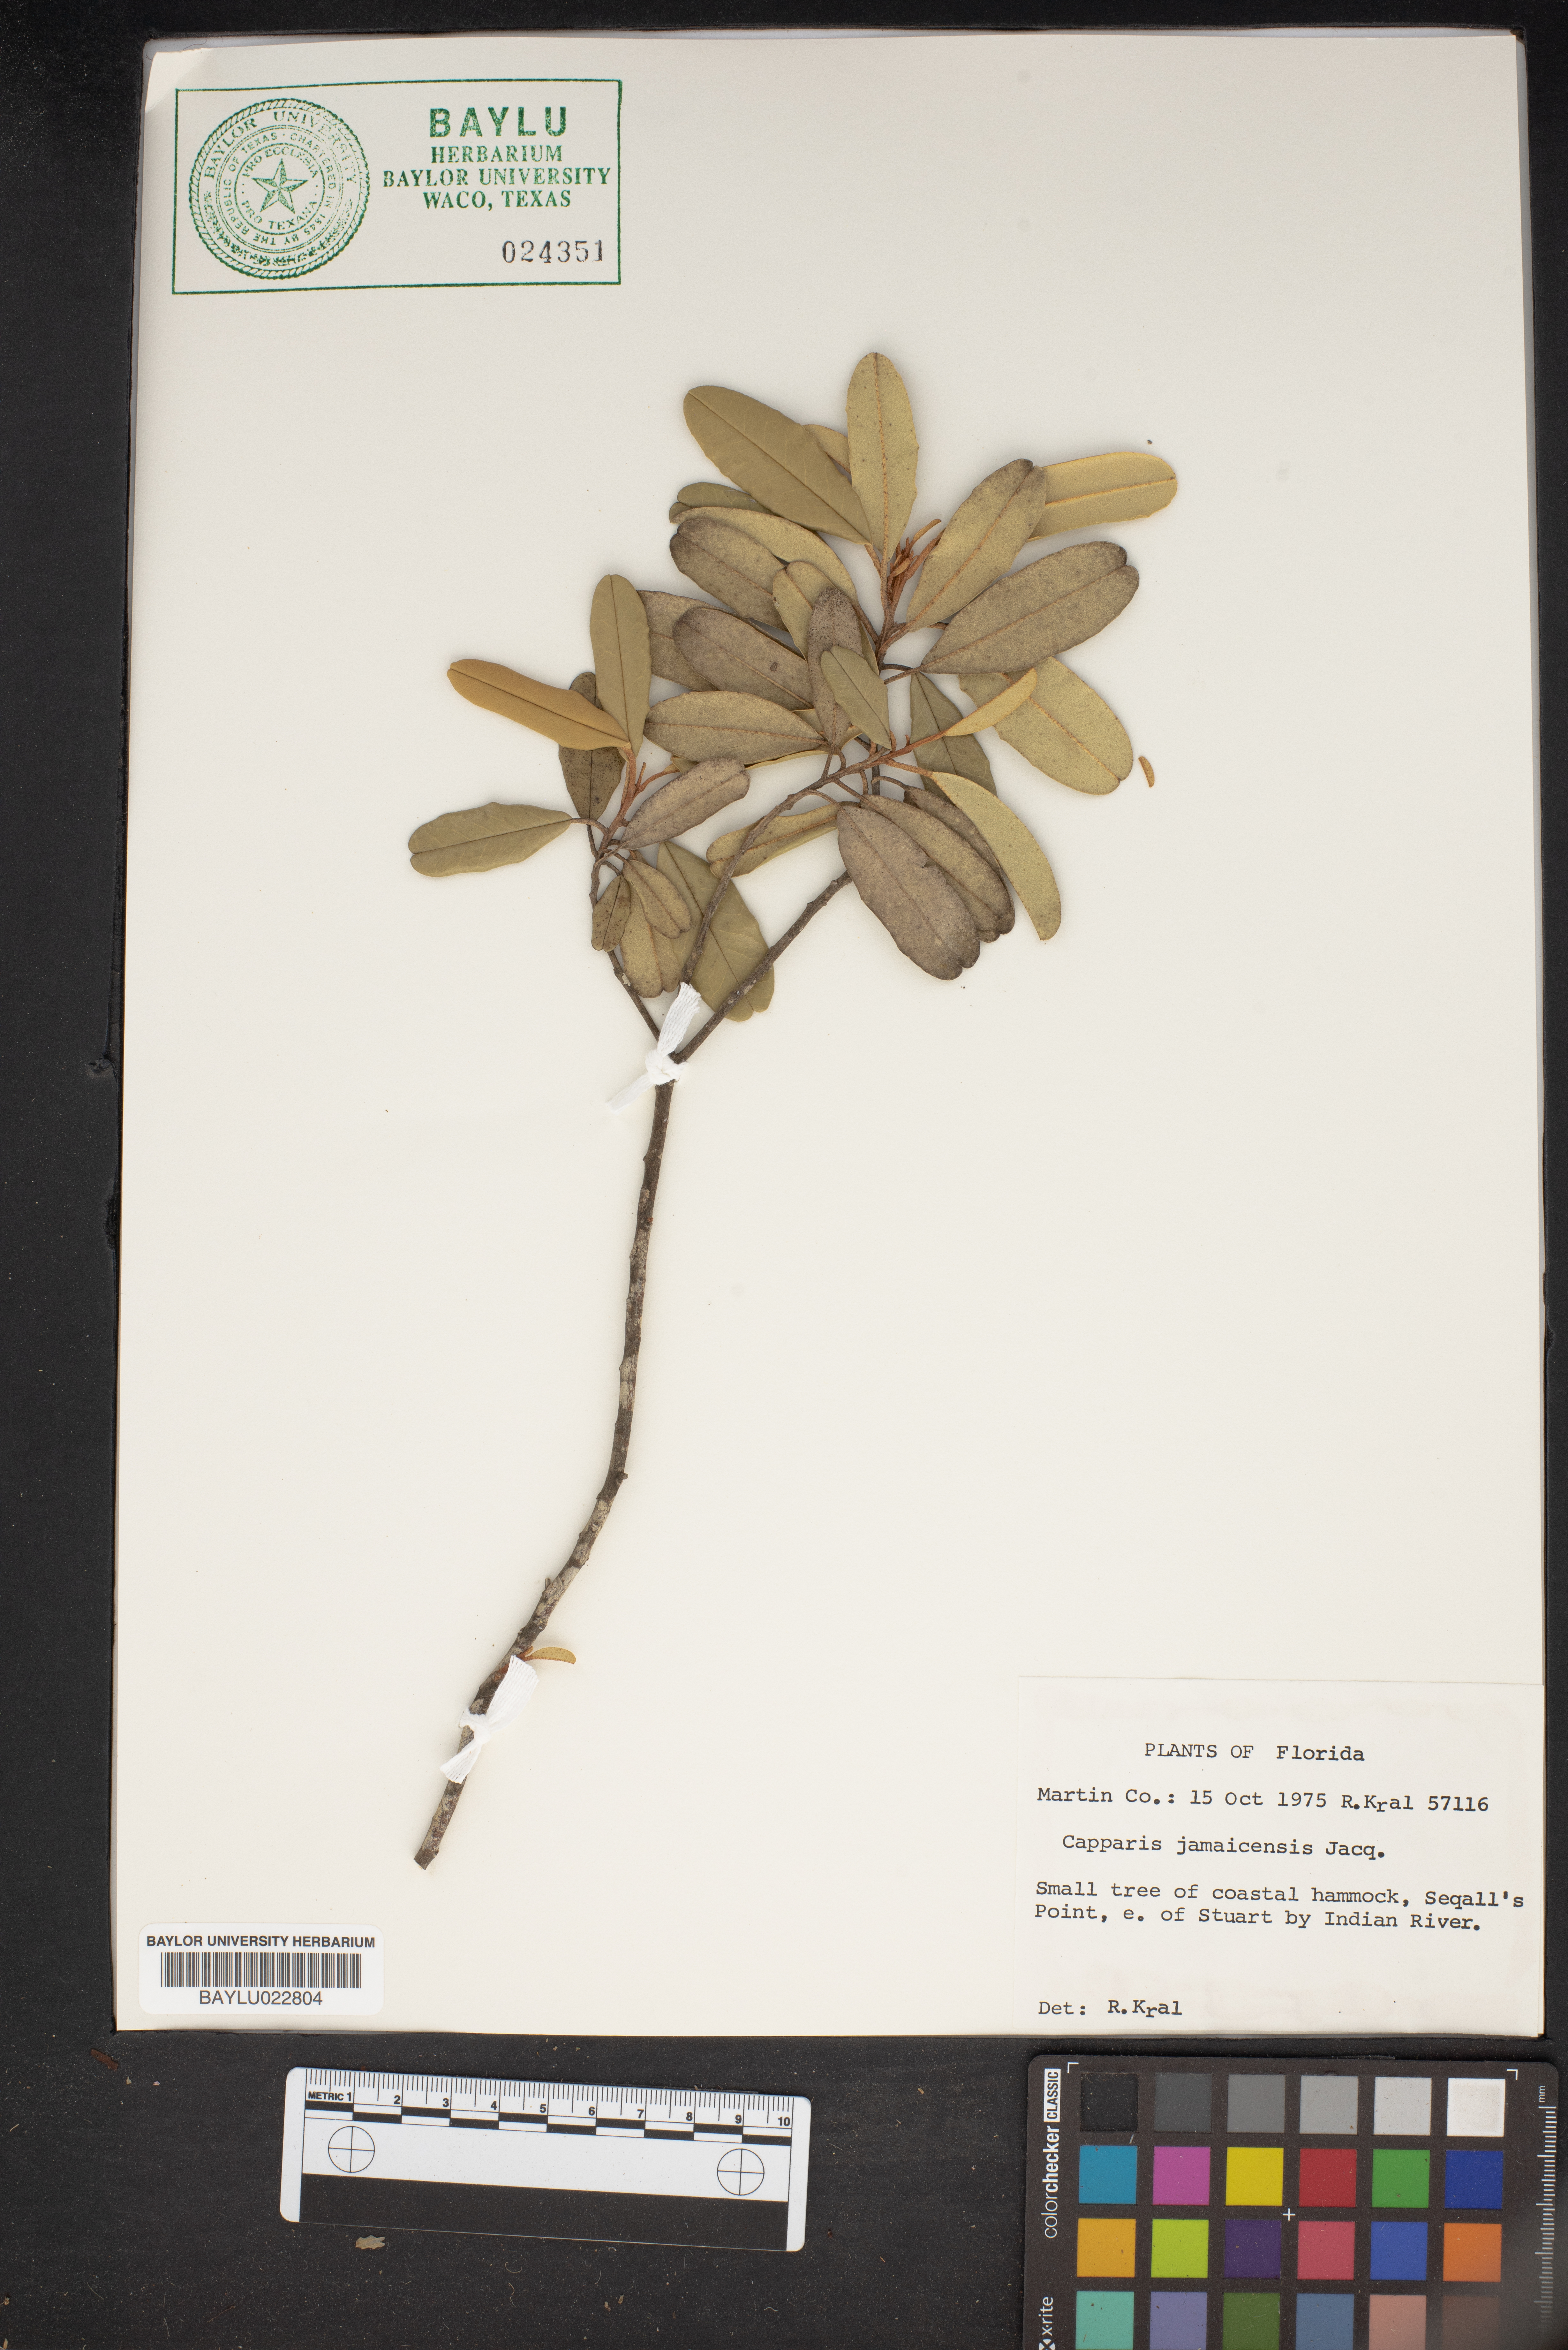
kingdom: Plantae
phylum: Tracheophyta
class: Magnoliopsida
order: Brassicales
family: Capparaceae
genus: Quadrella
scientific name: Quadrella cynophallophora
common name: Black willow
